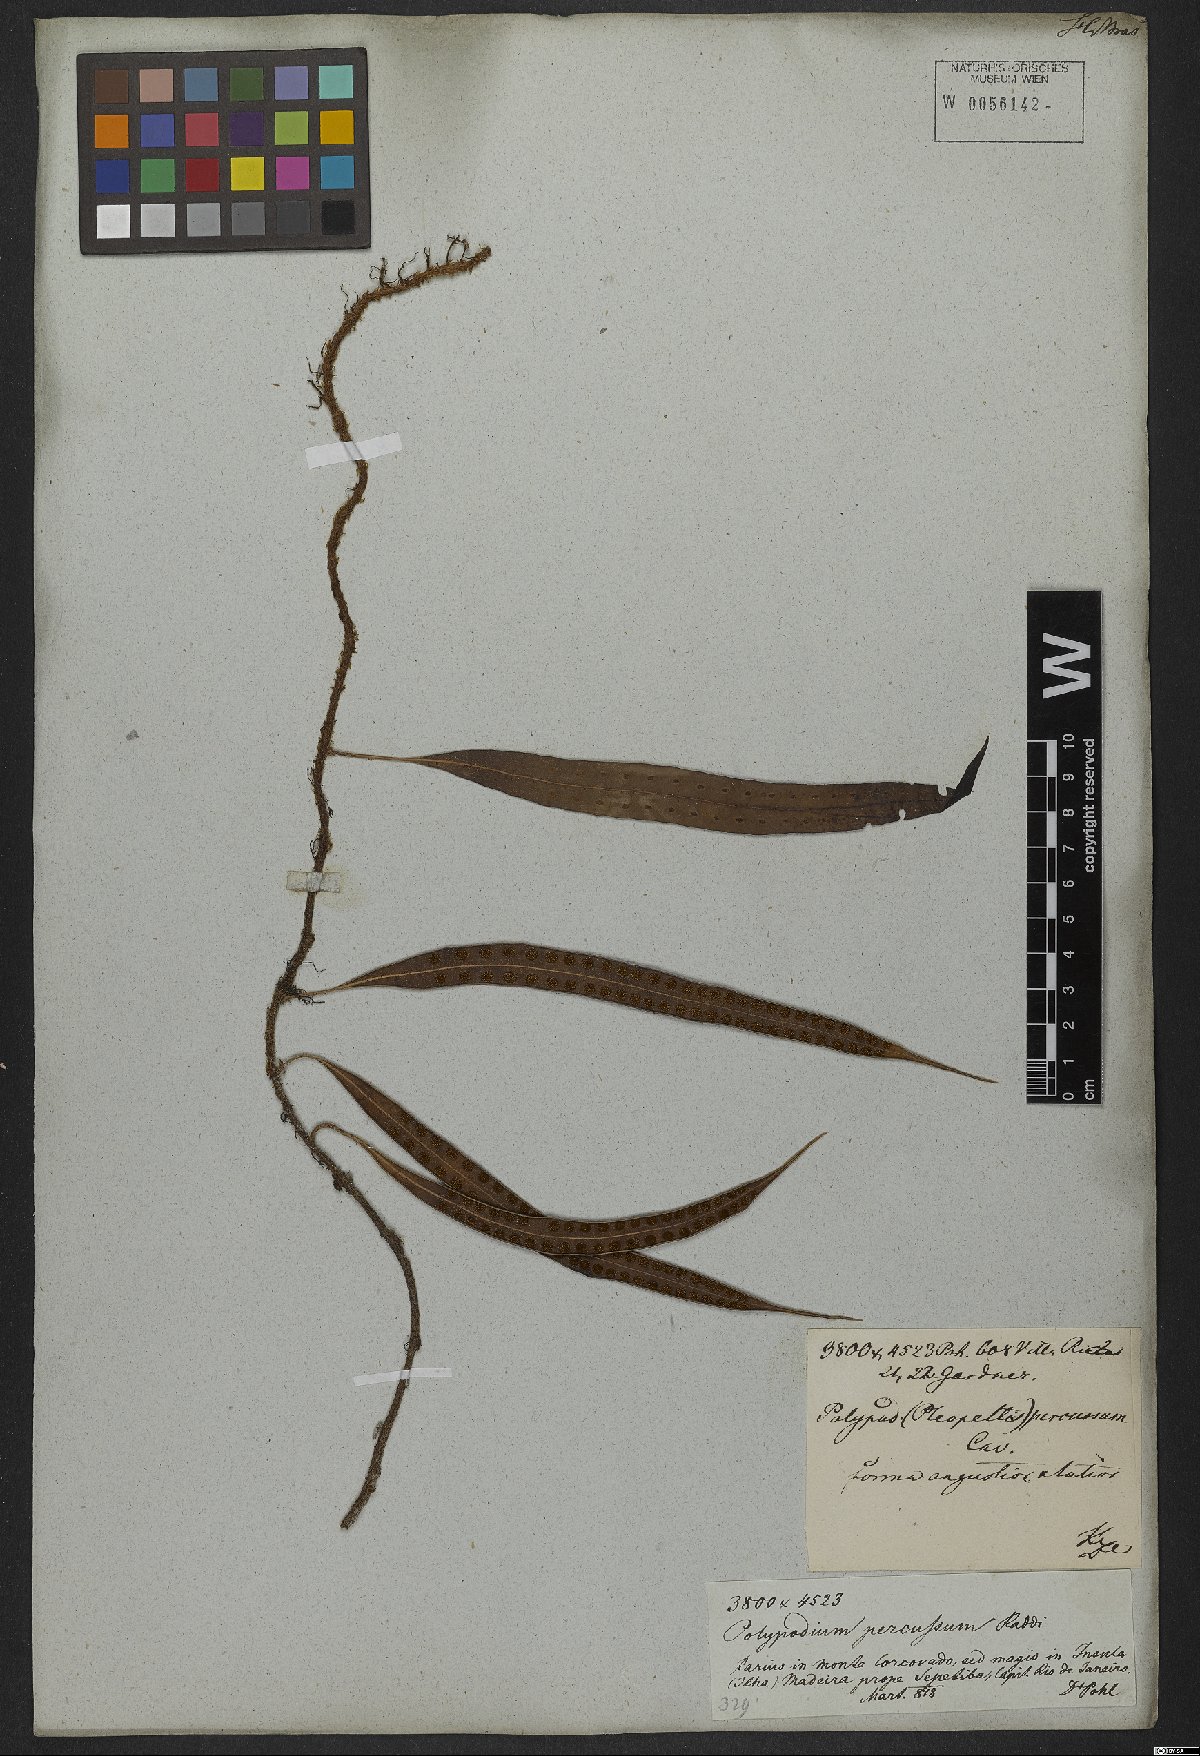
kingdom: Plantae
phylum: Tracheophyta
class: Polypodiopsida
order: Polypodiales
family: Polypodiaceae
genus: Microgramma
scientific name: Microgramma percussa
